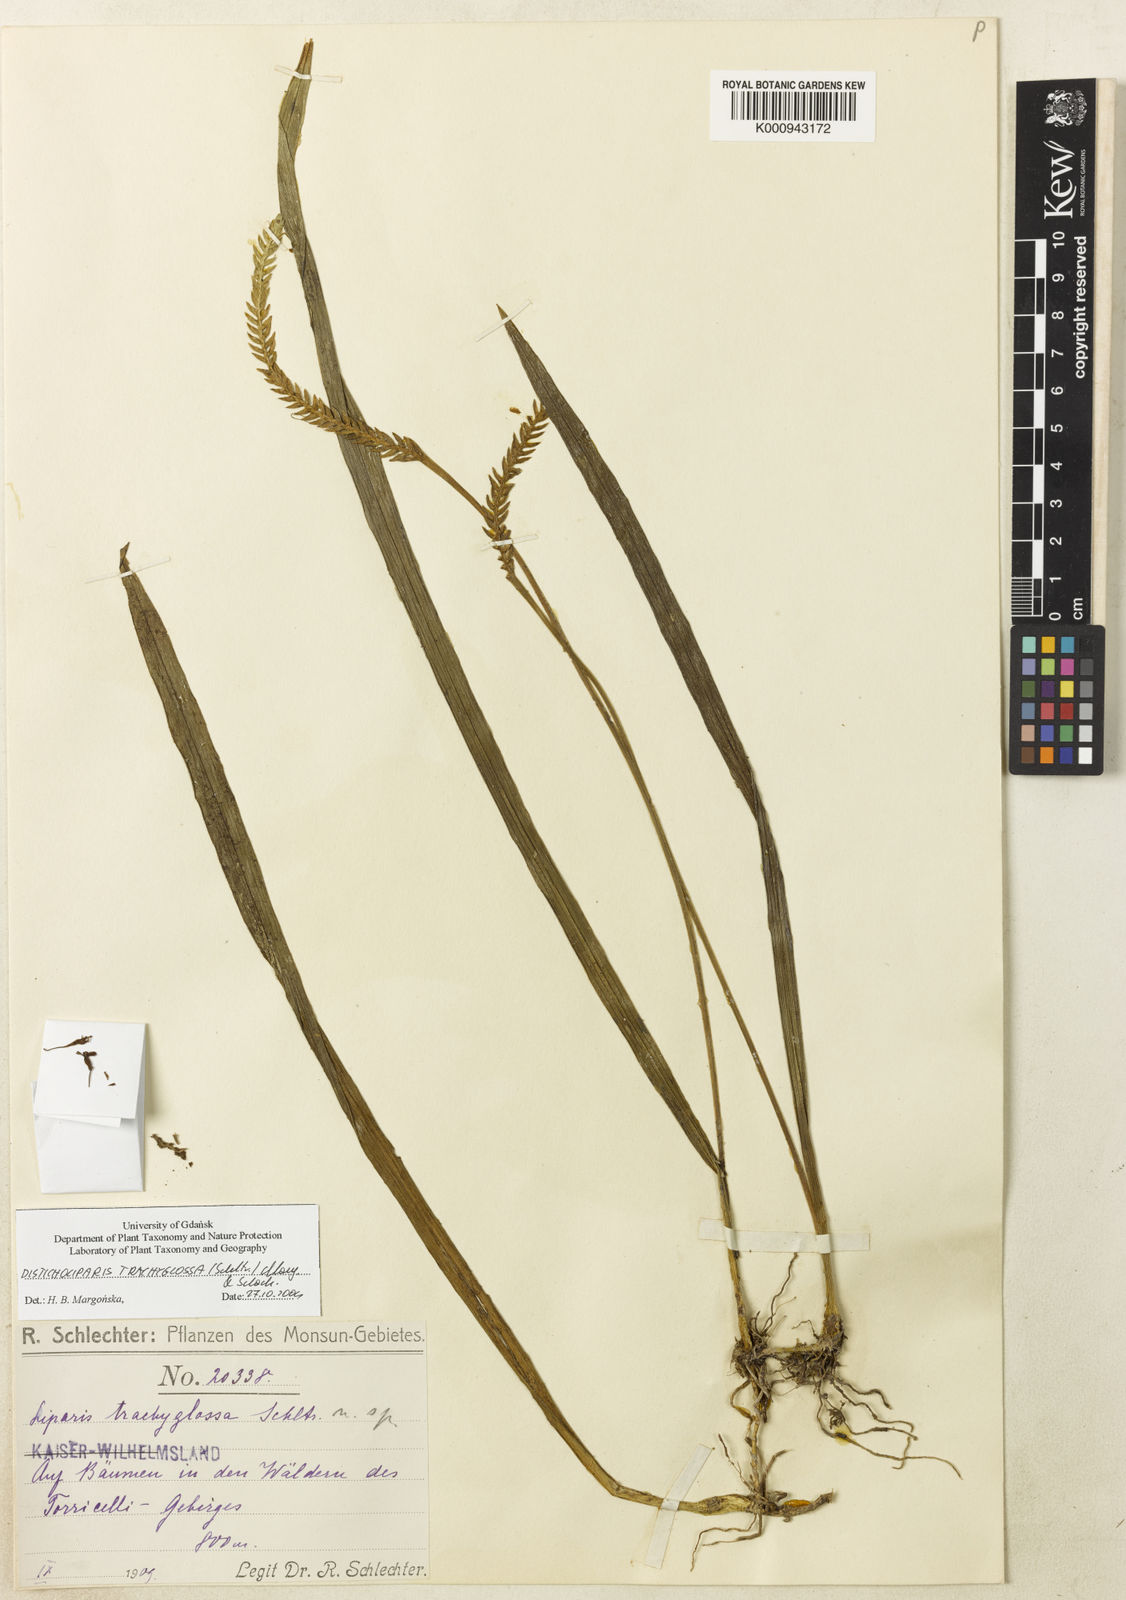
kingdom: Plantae
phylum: Tracheophyta
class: Liliopsida
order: Asparagales
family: Orchidaceae
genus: Liparis
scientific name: Liparis trachyglossa
